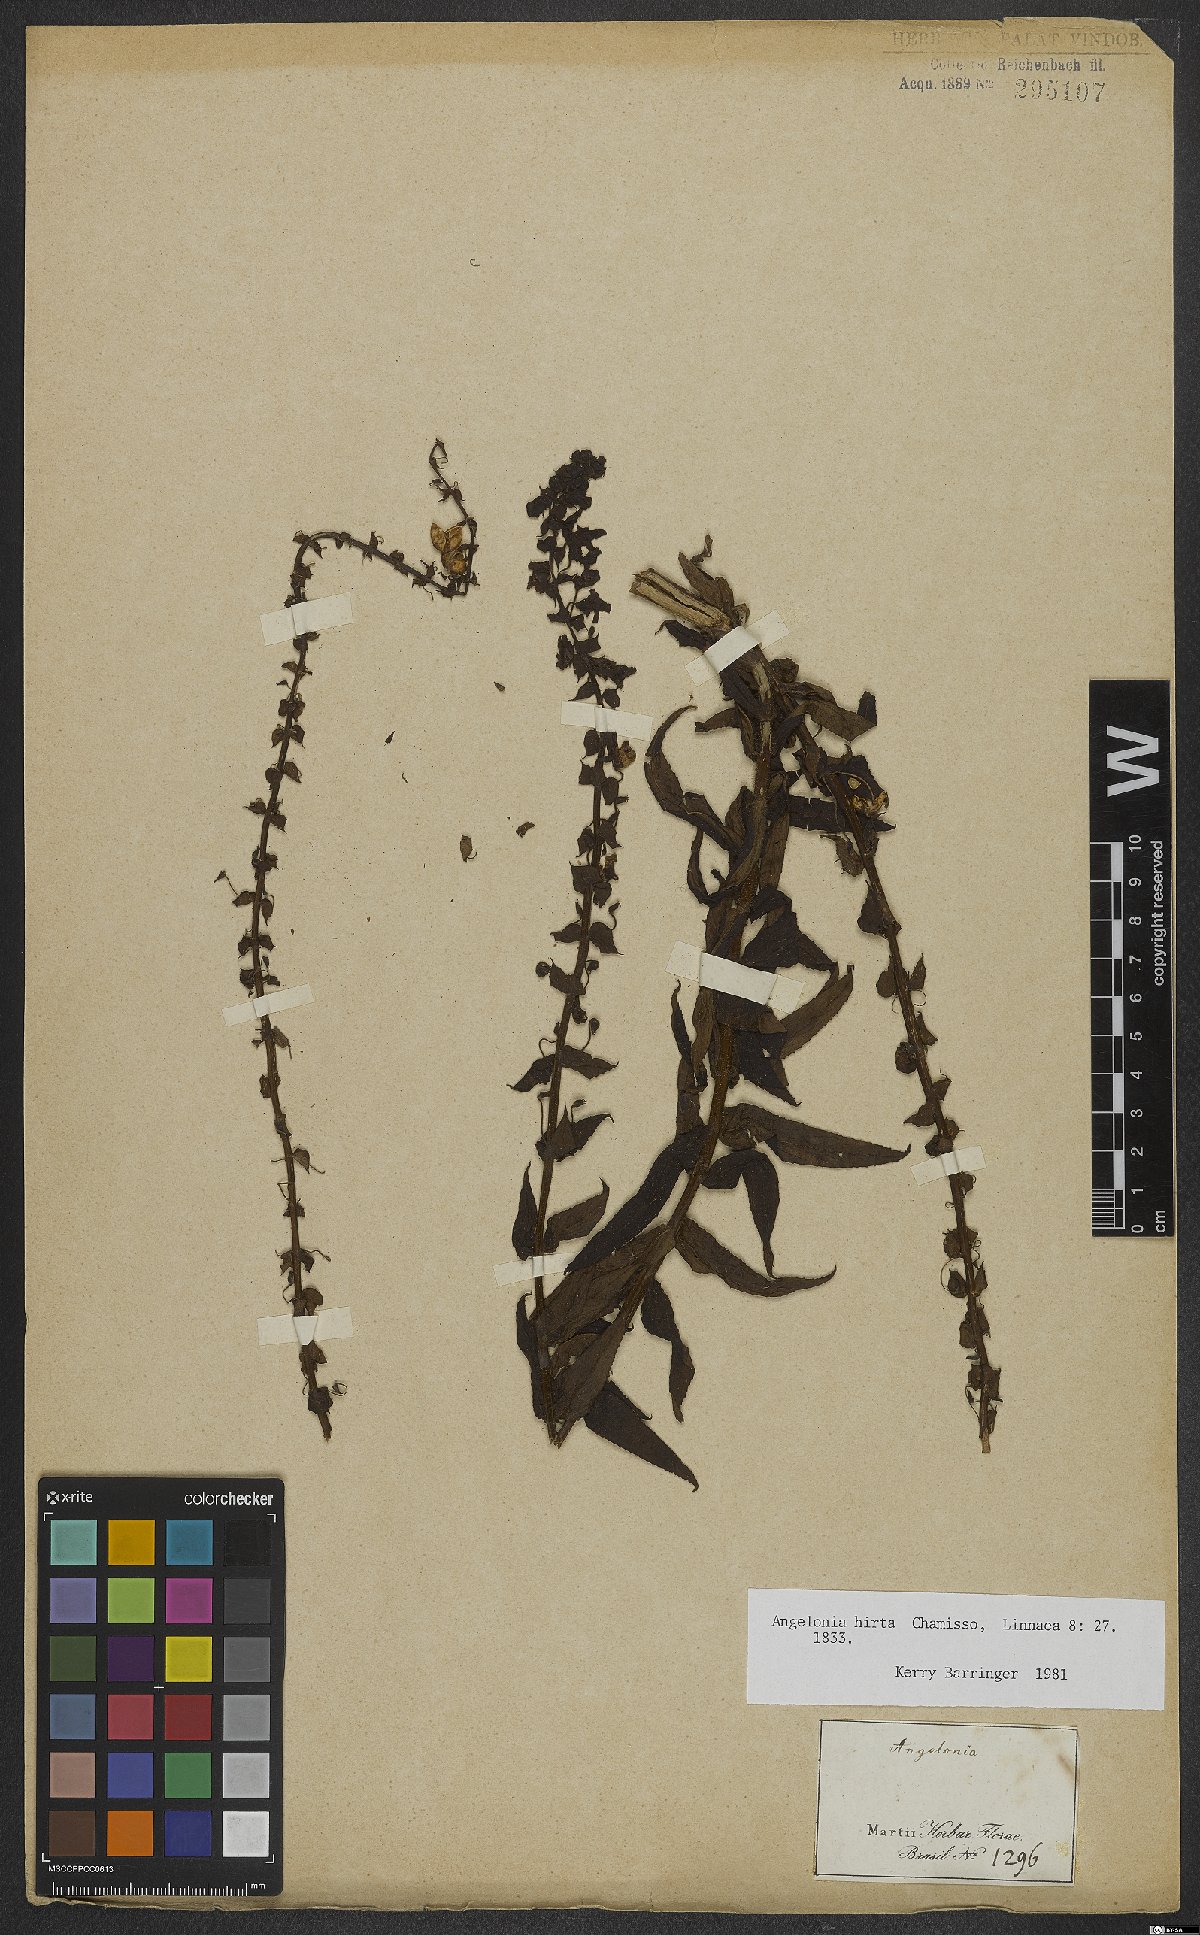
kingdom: Plantae
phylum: Tracheophyta
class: Magnoliopsida
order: Lamiales
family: Plantaginaceae
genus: Angelonia
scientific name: Angelonia salicariifolia
